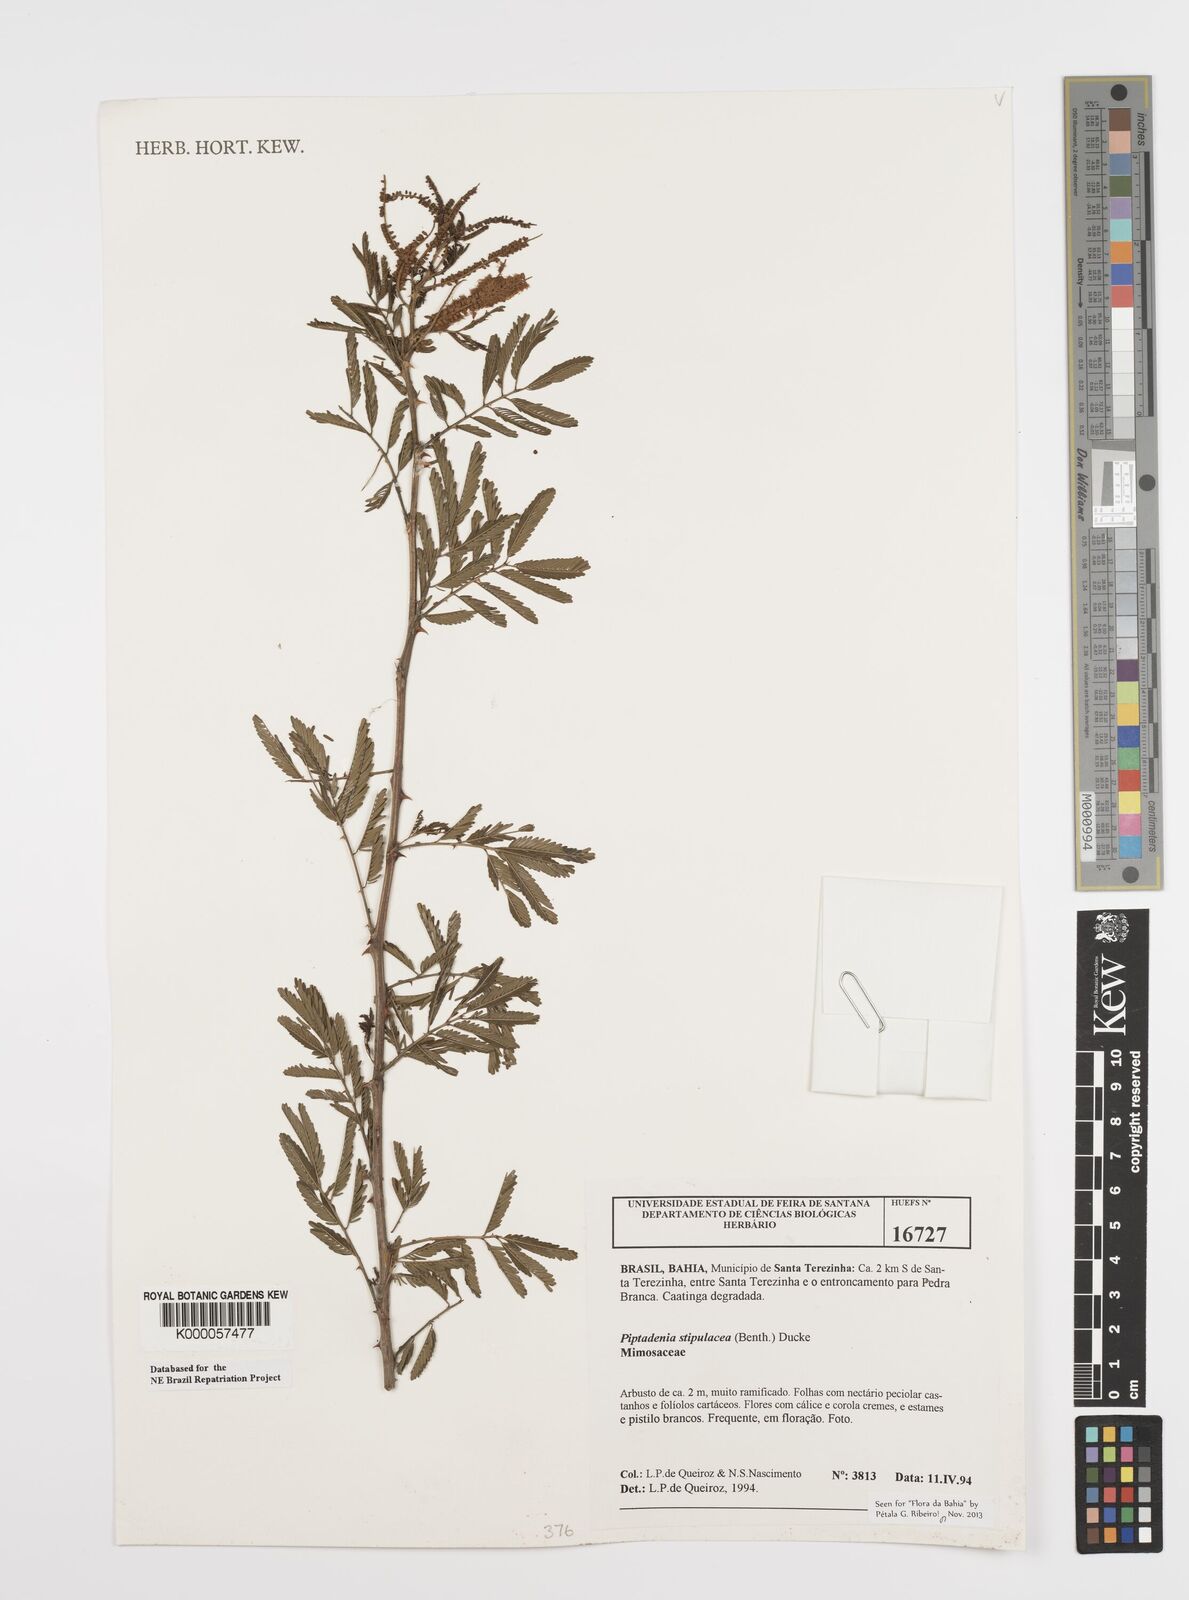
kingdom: Plantae
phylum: Tracheophyta
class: Magnoliopsida
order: Fabales
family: Fabaceae
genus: Piptadenia
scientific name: Piptadenia retusa
